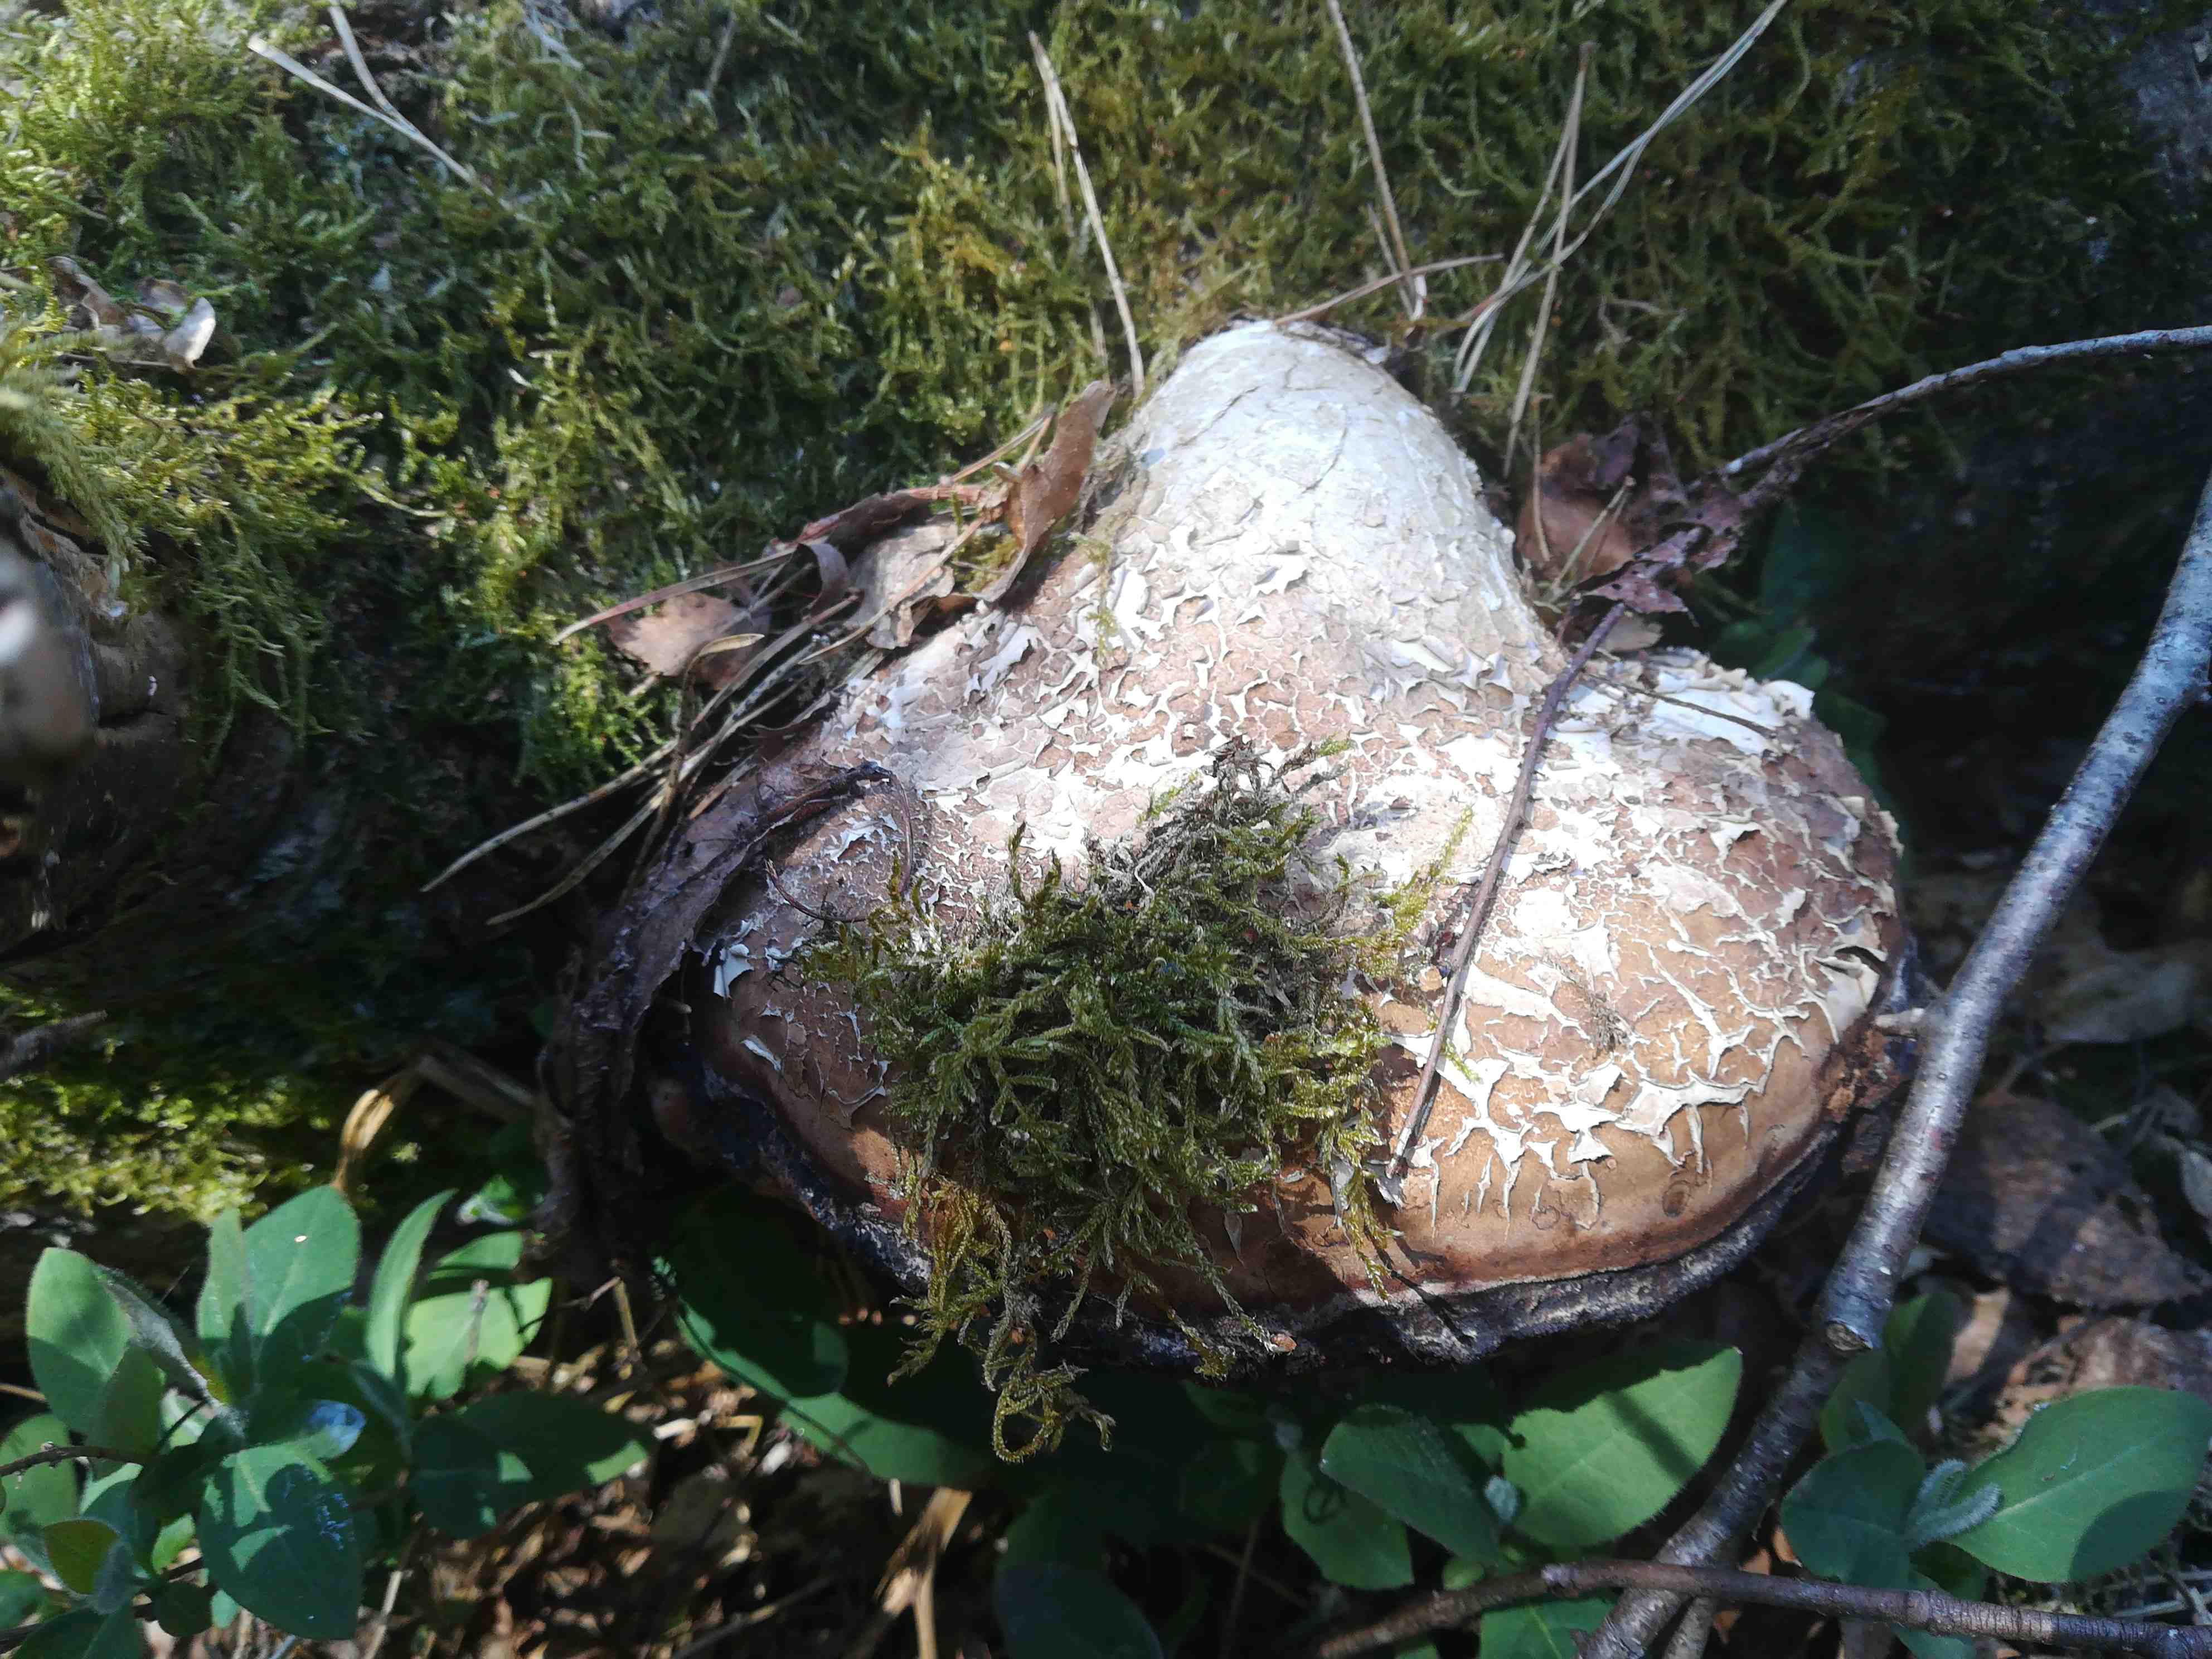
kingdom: Fungi
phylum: Basidiomycota
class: Agaricomycetes
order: Polyporales
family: Fomitopsidaceae
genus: Fomitopsis
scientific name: Fomitopsis betulina
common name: birkeporesvamp
